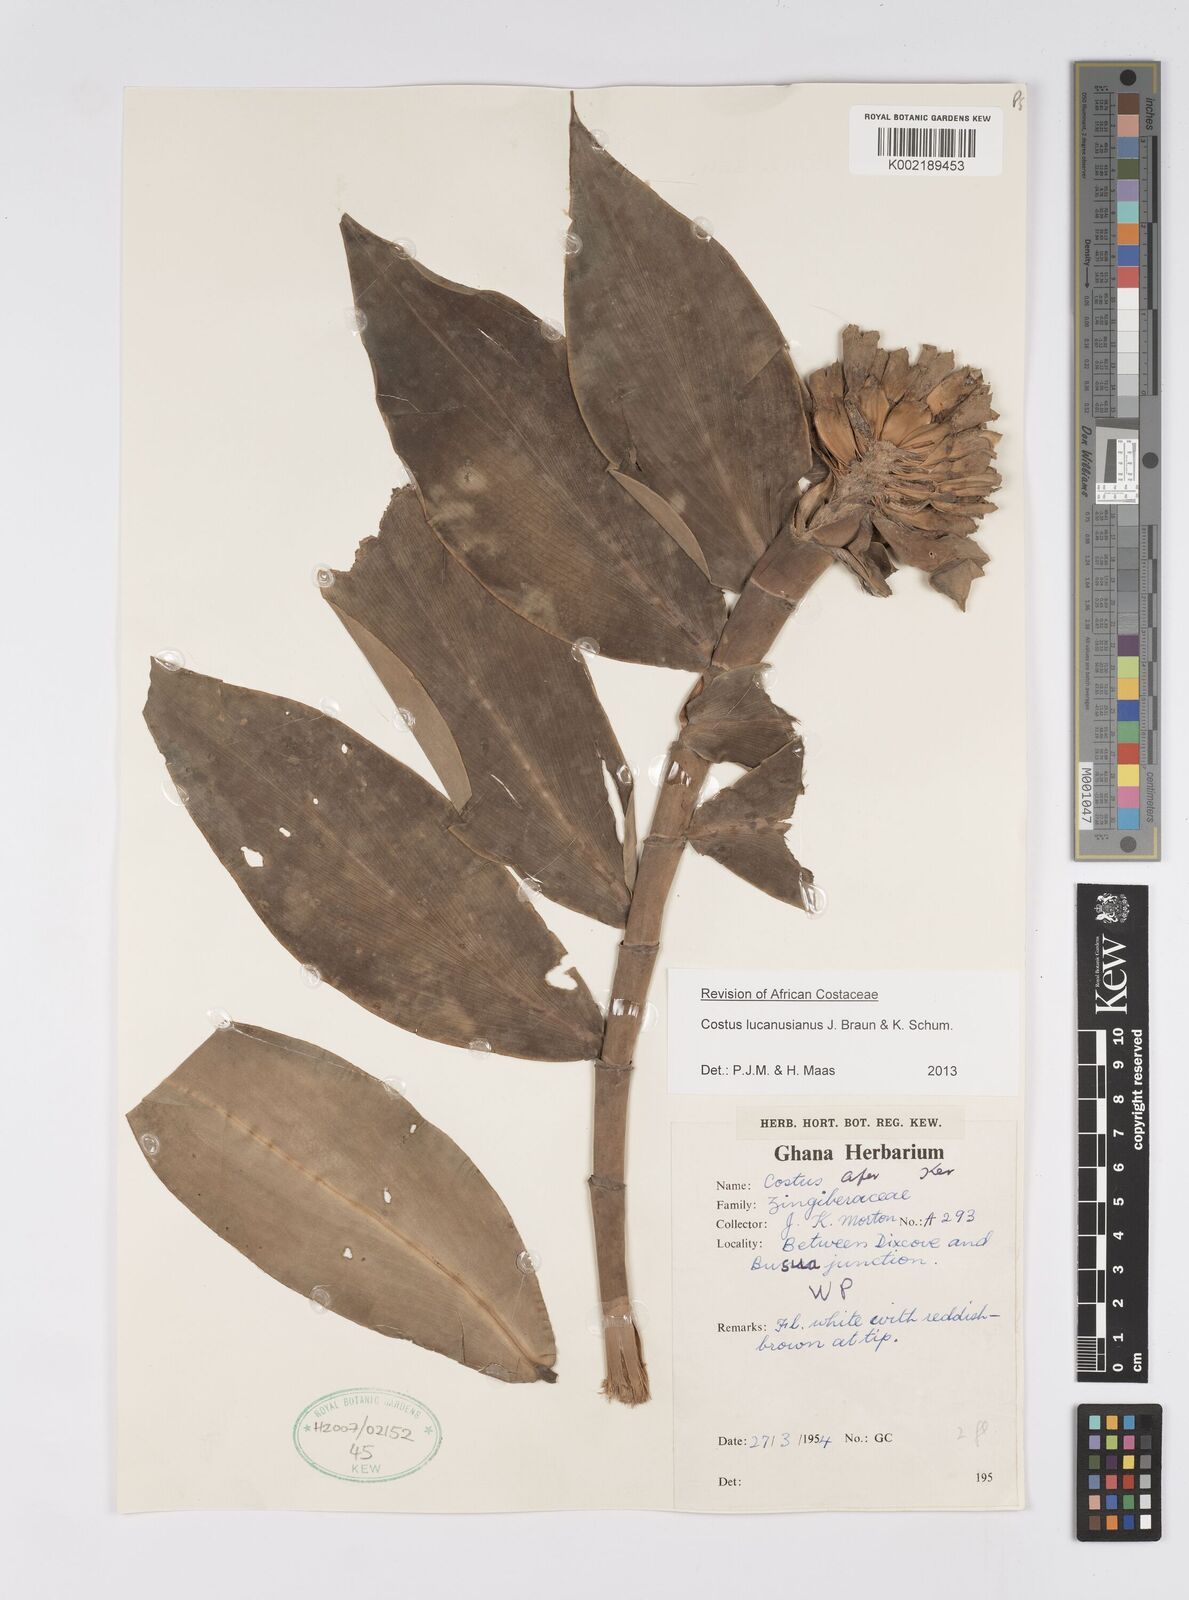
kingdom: Plantae
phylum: Tracheophyta
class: Liliopsida
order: Zingiberales
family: Costaceae
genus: Costus
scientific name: Costus lucanusianus
